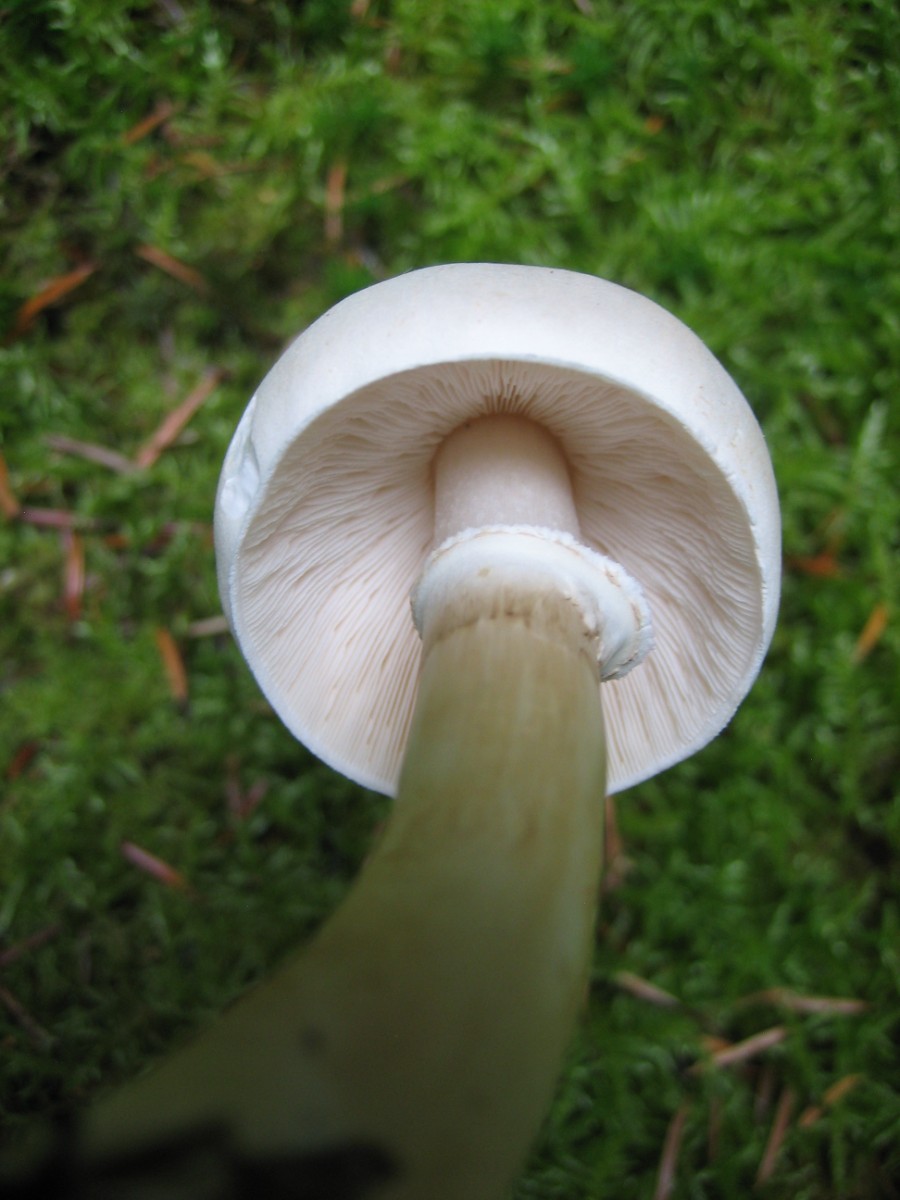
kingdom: Fungi
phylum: Basidiomycota
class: Agaricomycetes
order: Agaricales
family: Agaricaceae
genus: Leucoagaricus
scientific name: Leucoagaricus leucothites
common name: rosabladet silkehat
